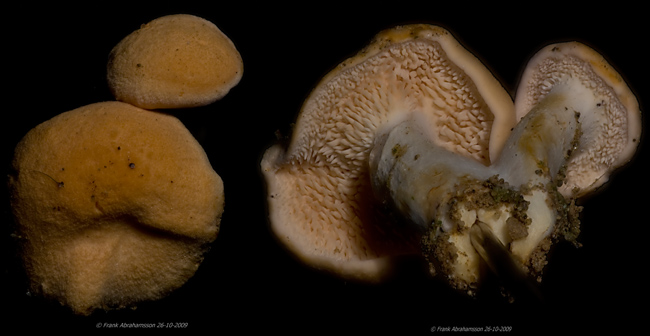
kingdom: Fungi
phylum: Basidiomycota
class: Agaricomycetes
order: Cantharellales
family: Hydnaceae
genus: Hydnum
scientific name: Hydnum ellipsosporum
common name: tandet pigsvamp
